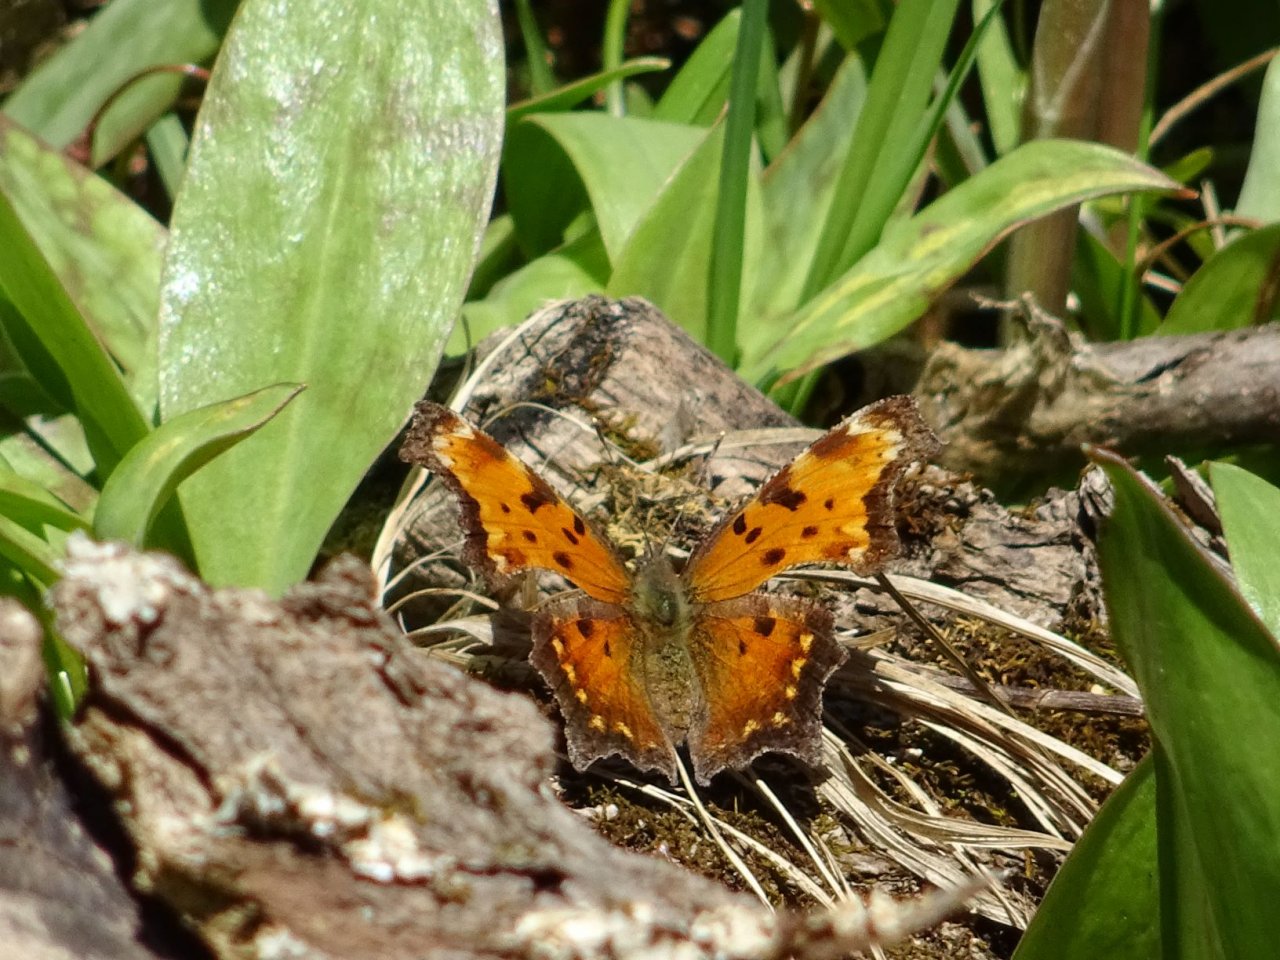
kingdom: Animalia
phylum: Arthropoda
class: Insecta
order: Lepidoptera
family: Nymphalidae
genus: Polygonia
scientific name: Polygonia progne
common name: Gray Comma
